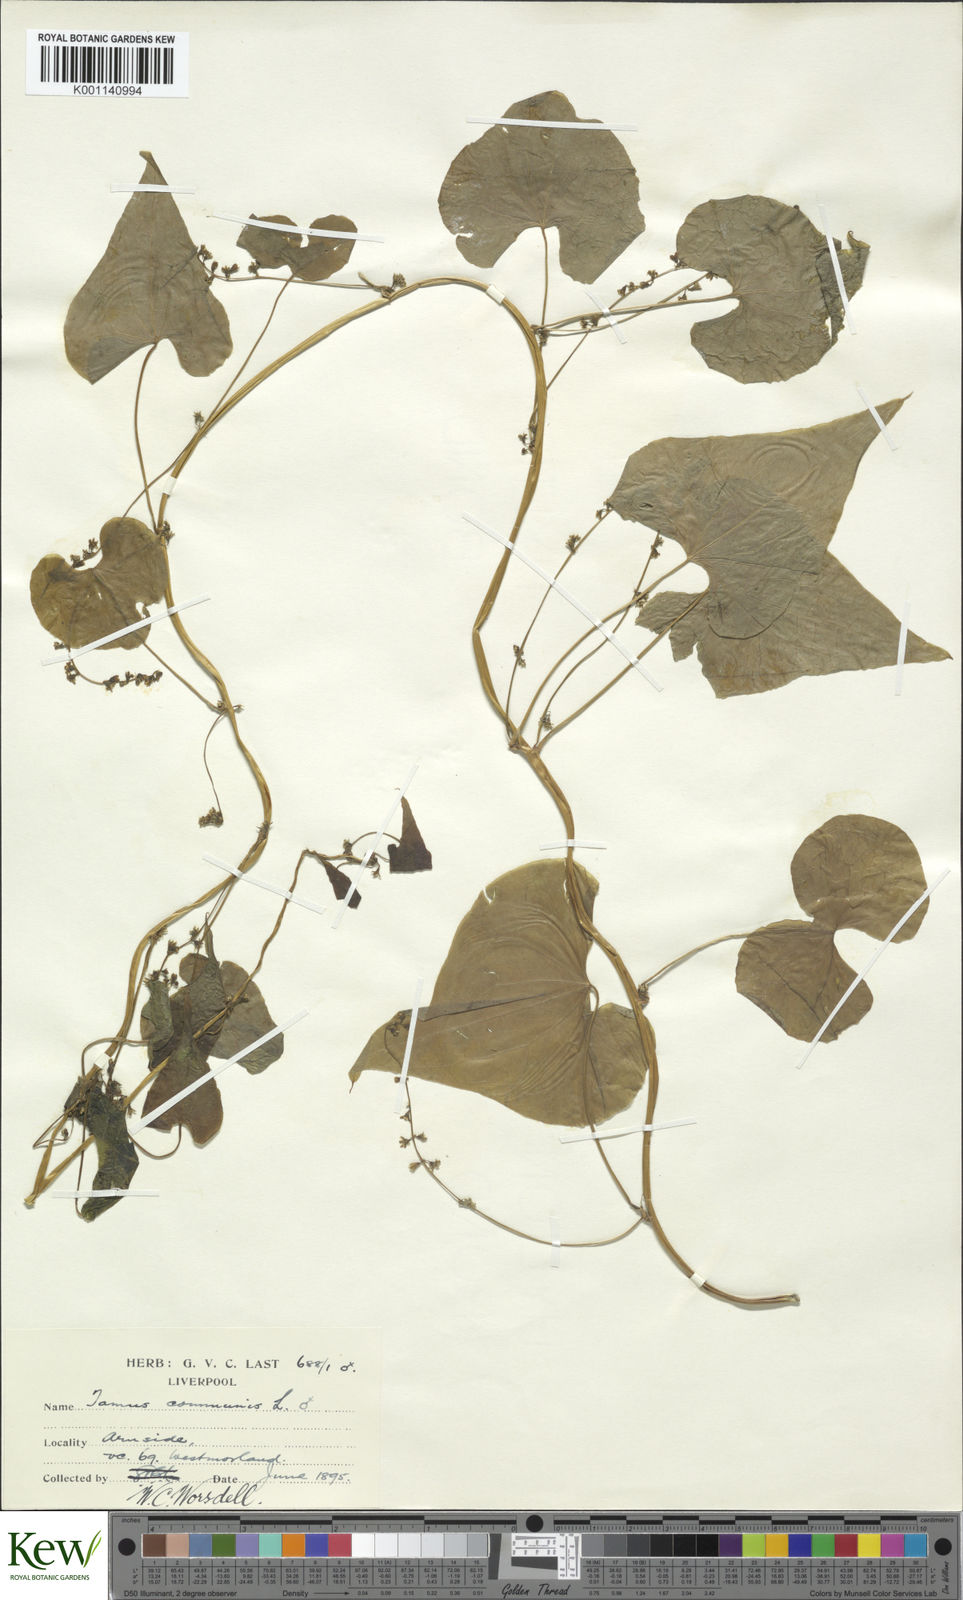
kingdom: Plantae
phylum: Tracheophyta
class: Liliopsida
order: Dioscoreales
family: Dioscoreaceae
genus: Dioscorea
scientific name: Dioscorea communis
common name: Black-bindweed
